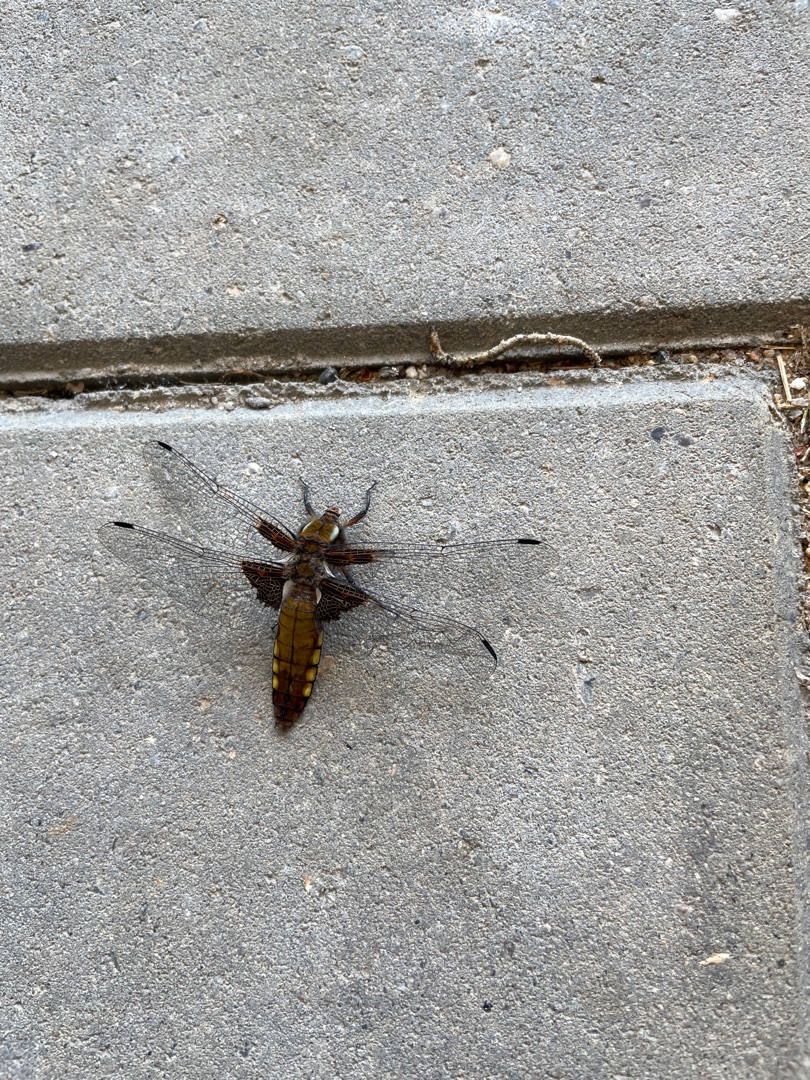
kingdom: Animalia
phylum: Arthropoda
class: Insecta
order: Odonata
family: Libellulidae
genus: Libellula
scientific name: Libellula depressa
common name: Blå libel
